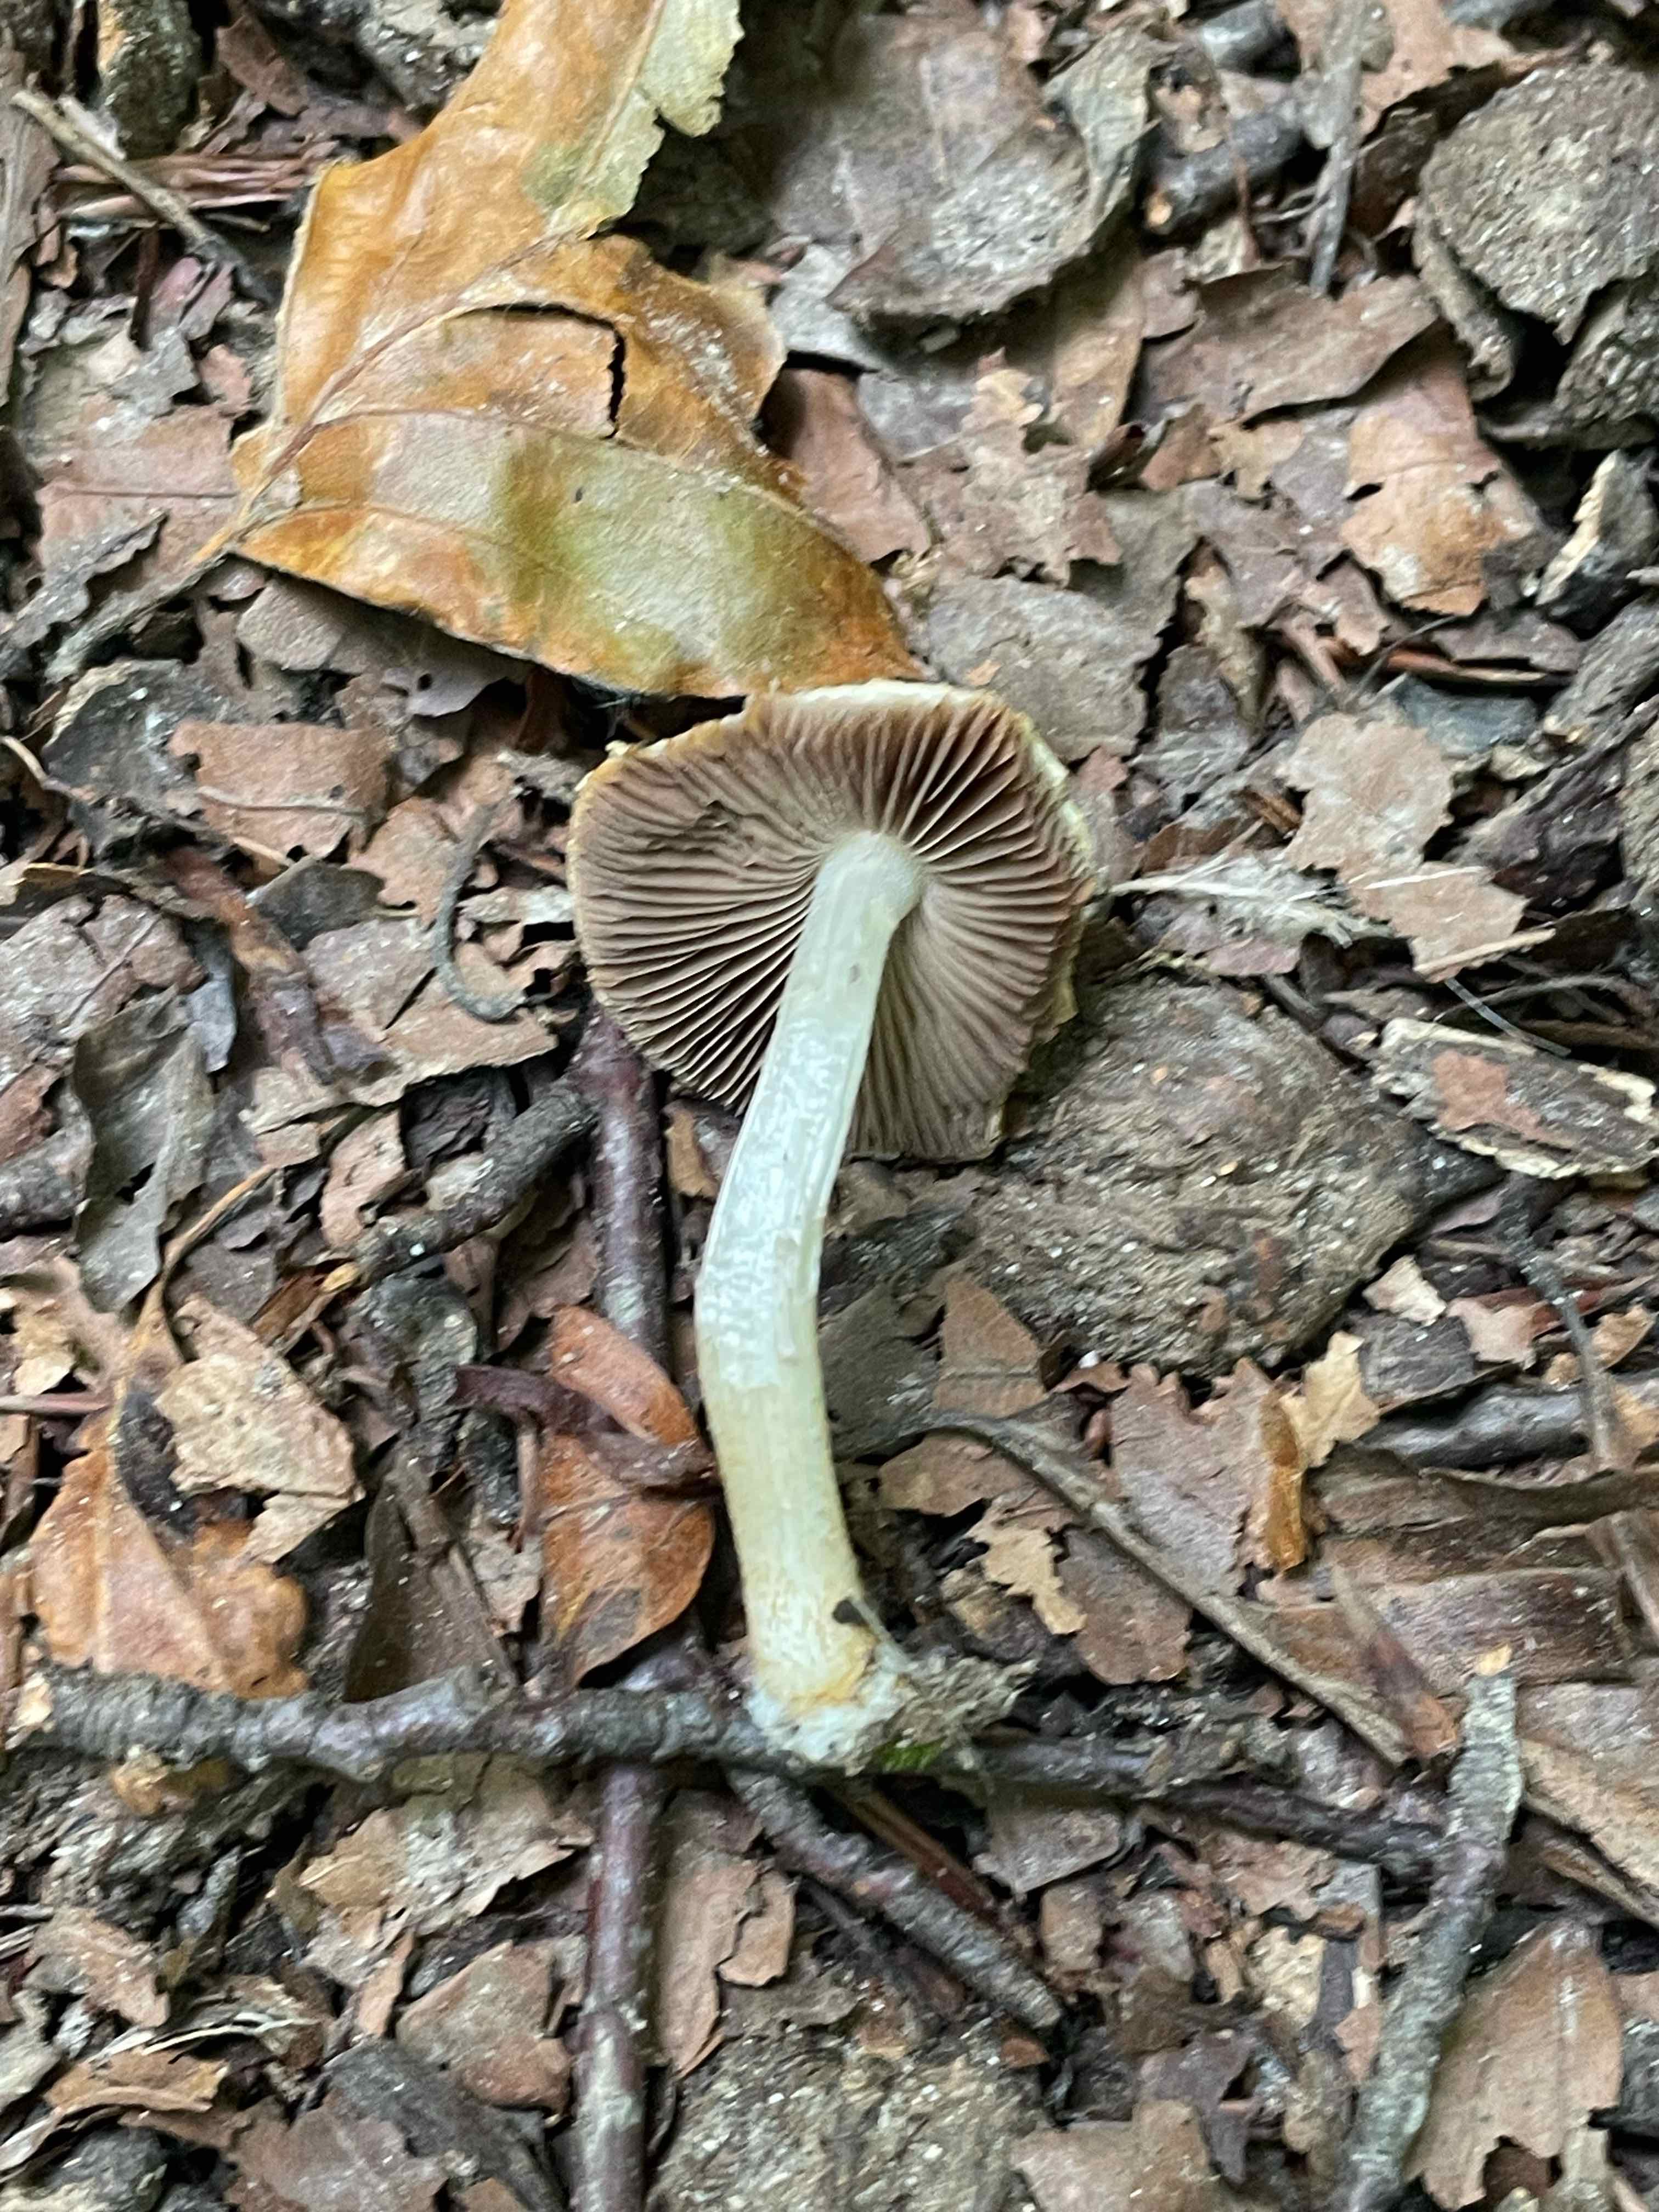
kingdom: Fungi
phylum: Basidiomycota
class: Agaricomycetes
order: Agaricales
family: Psathyrellaceae
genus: Cystoagaricus
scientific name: Cystoagaricus lepidotoides
